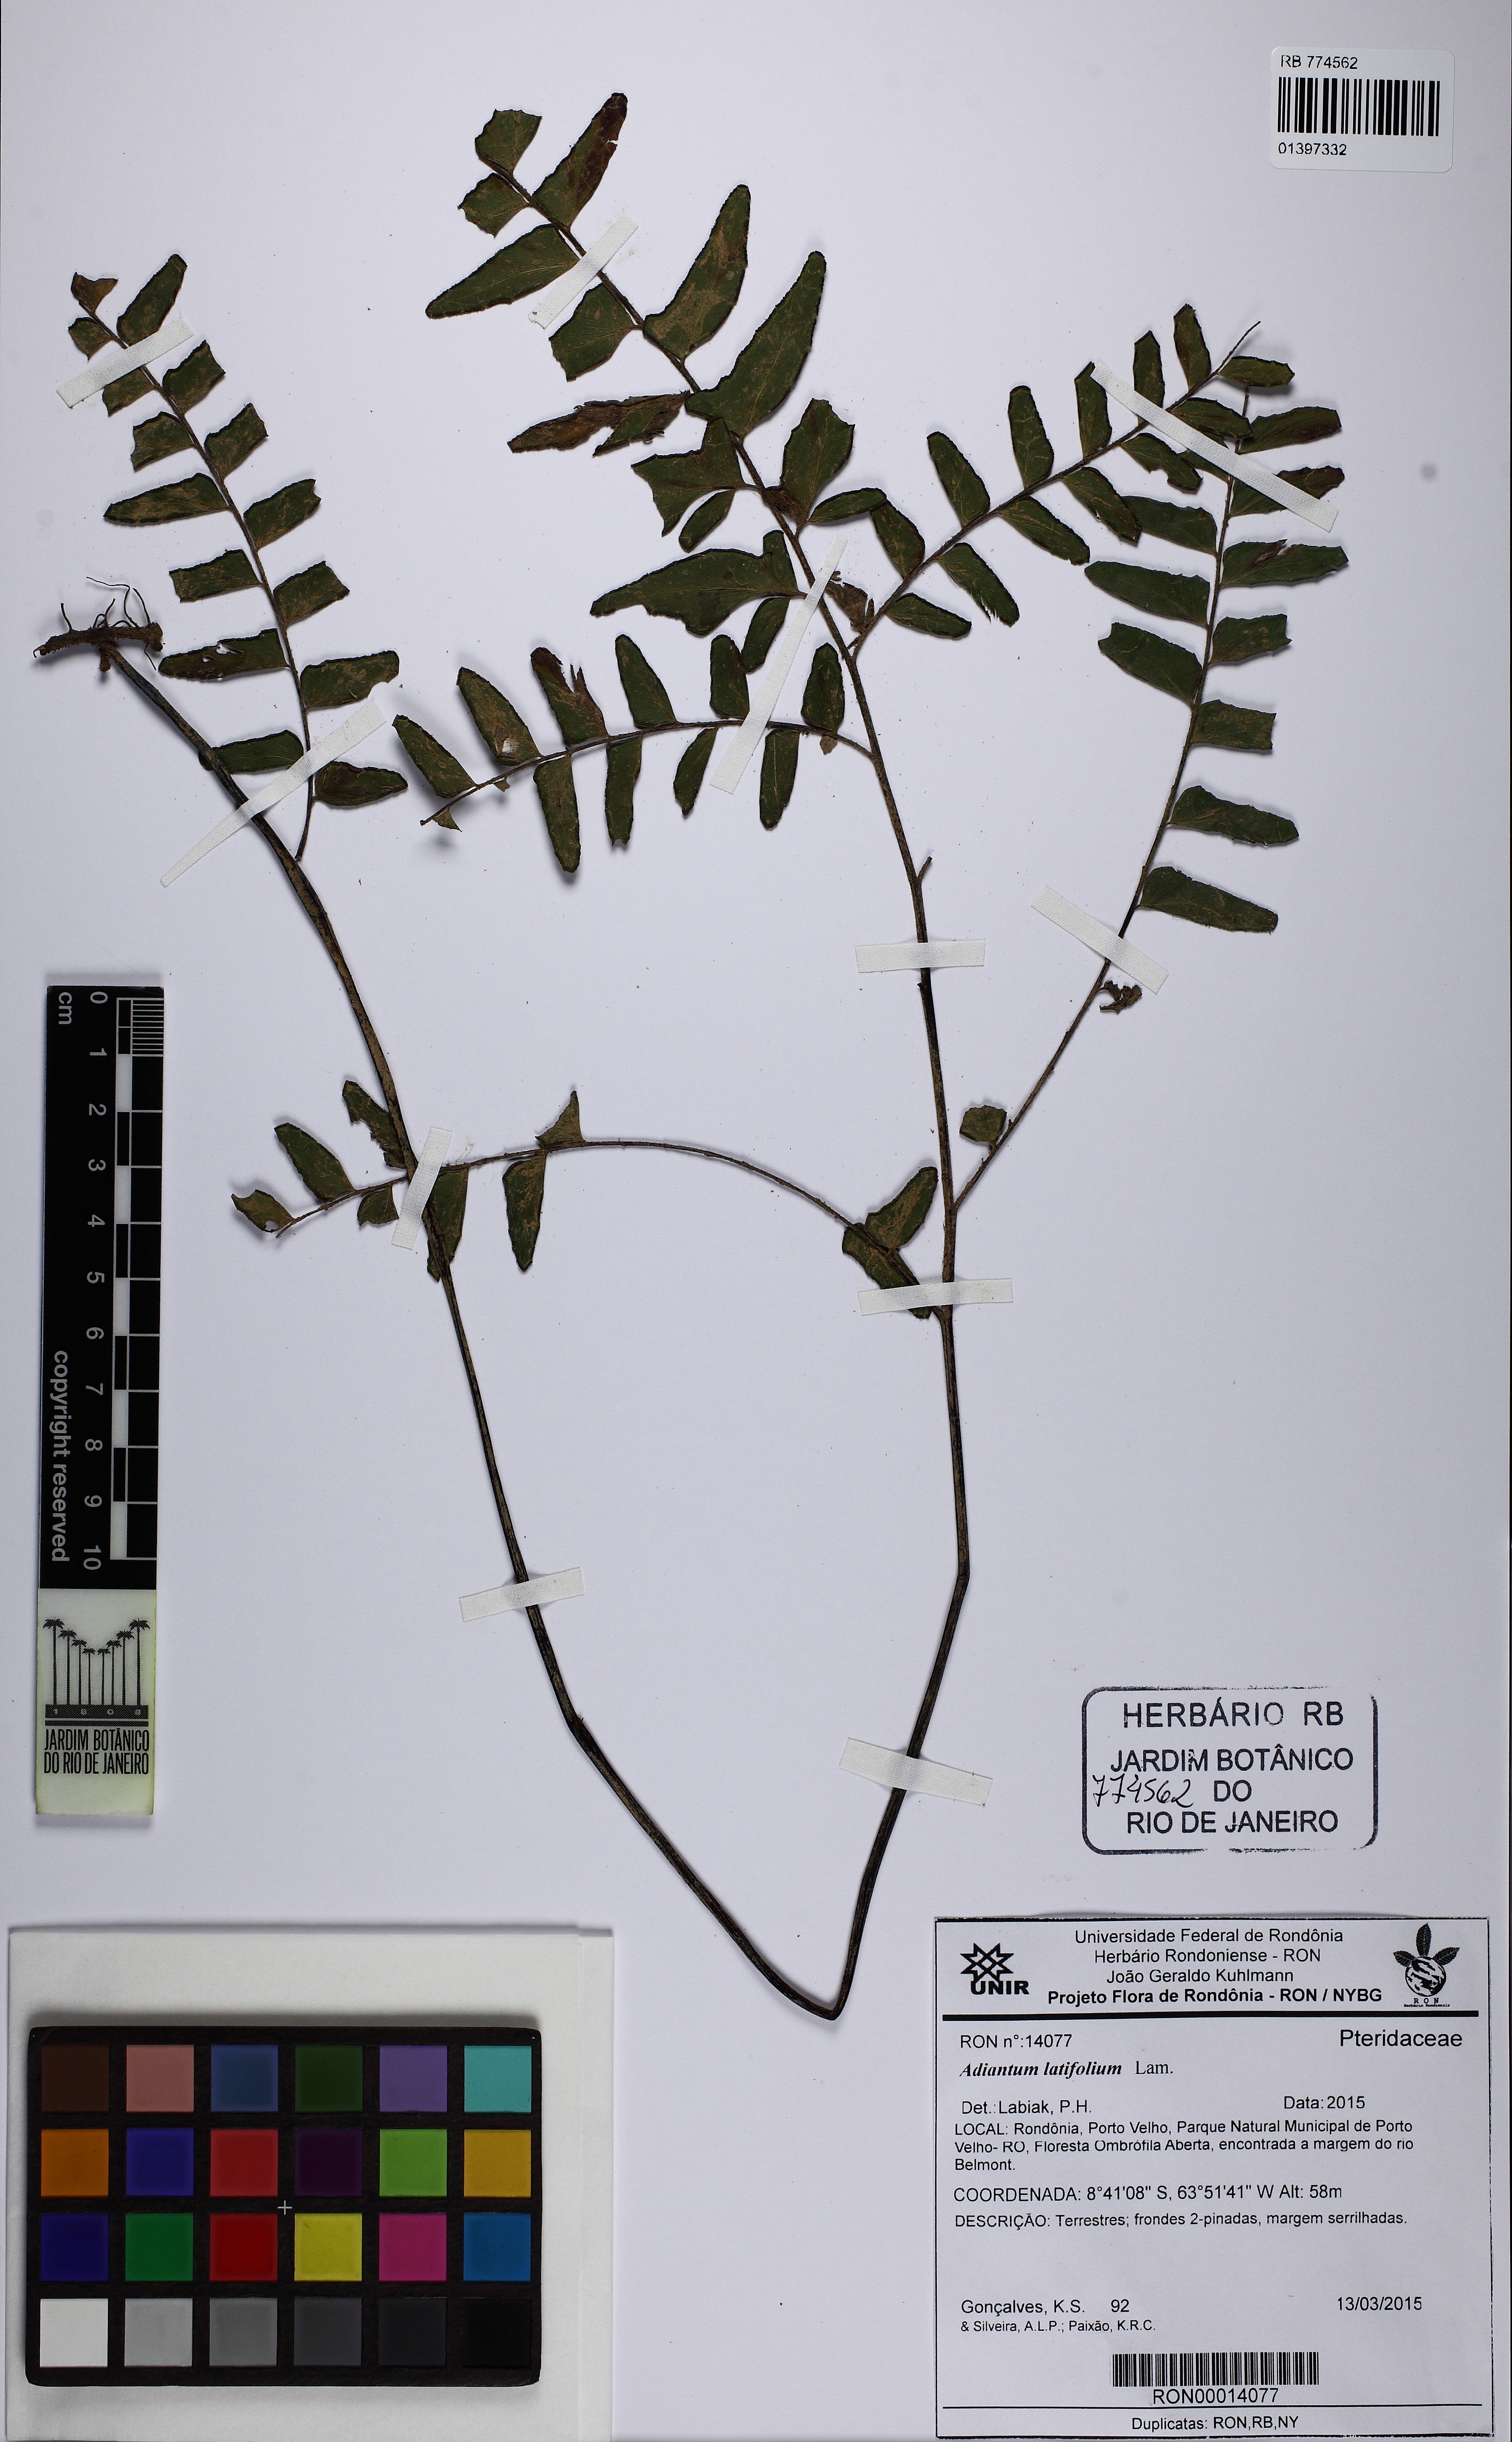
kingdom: Plantae
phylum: Tracheophyta
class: Polypodiopsida
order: Polypodiales
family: Pteridaceae
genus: Adiantum
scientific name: Adiantum latifolium
